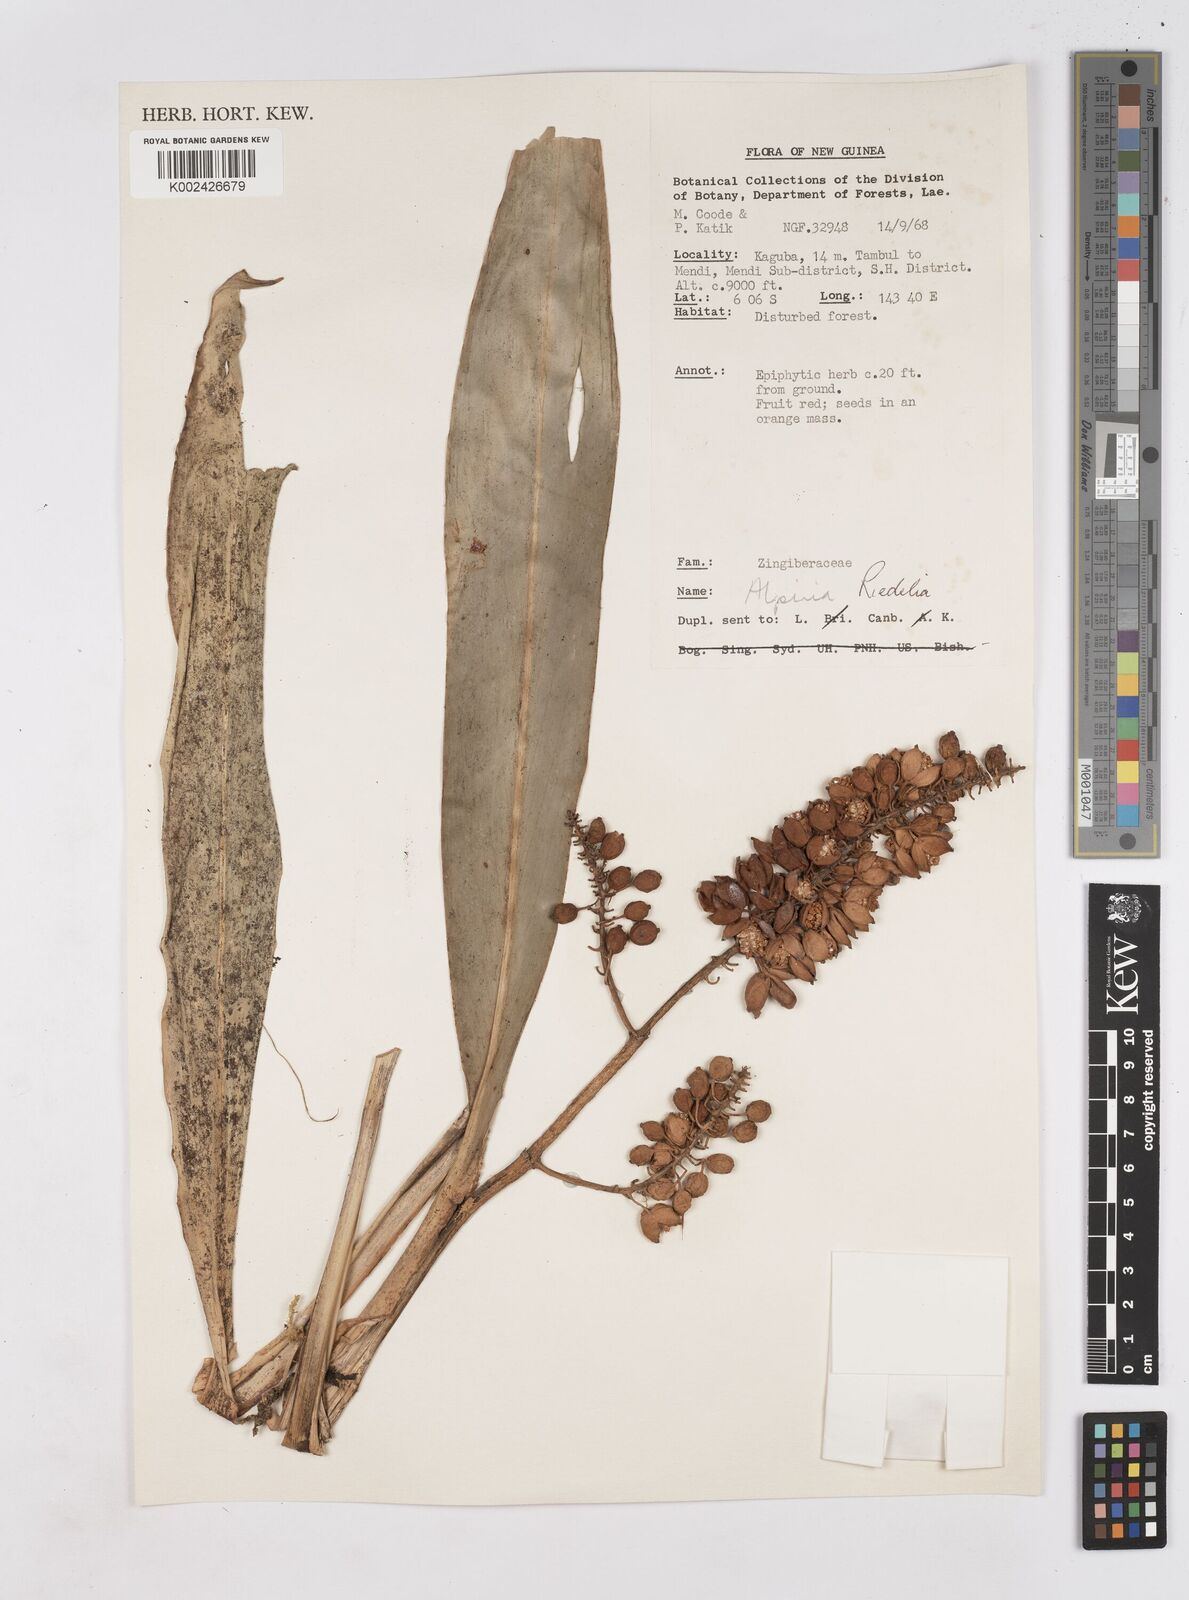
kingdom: Plantae
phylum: Tracheophyta
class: Liliopsida
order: Zingiberales
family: Zingiberaceae
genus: Riedelia
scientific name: Riedelia
